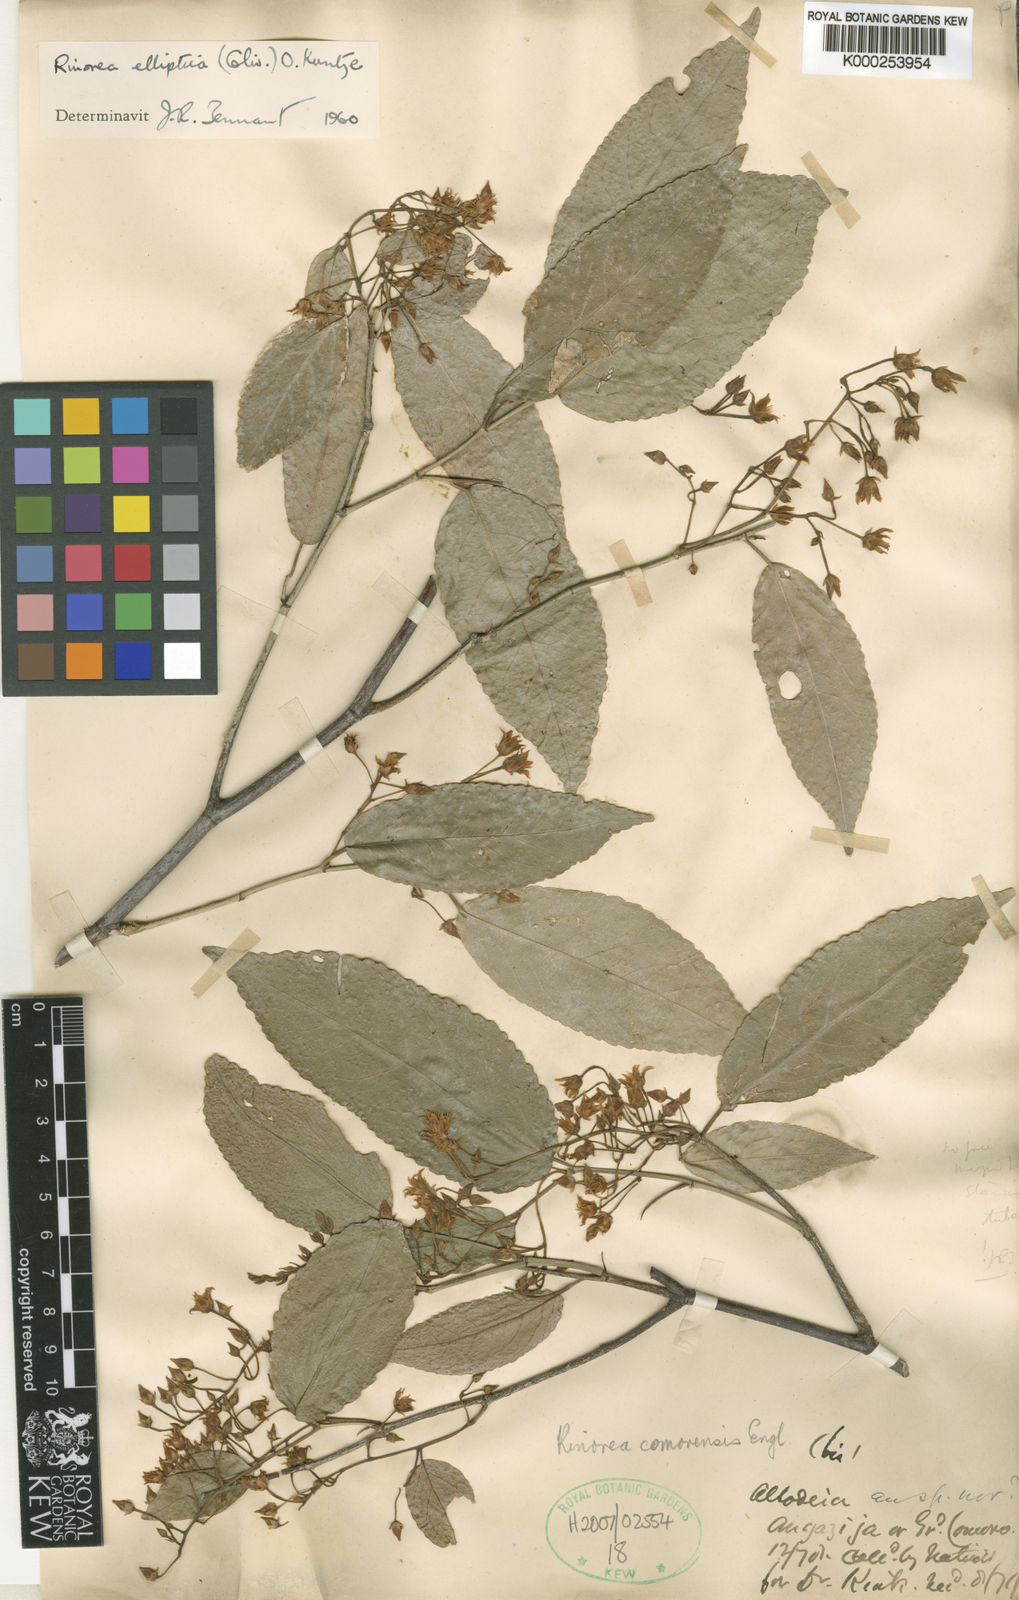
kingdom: Plantae
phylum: Tracheophyta
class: Magnoliopsida
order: Malpighiales
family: Violaceae
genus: Rinorea
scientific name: Rinorea elliptica
